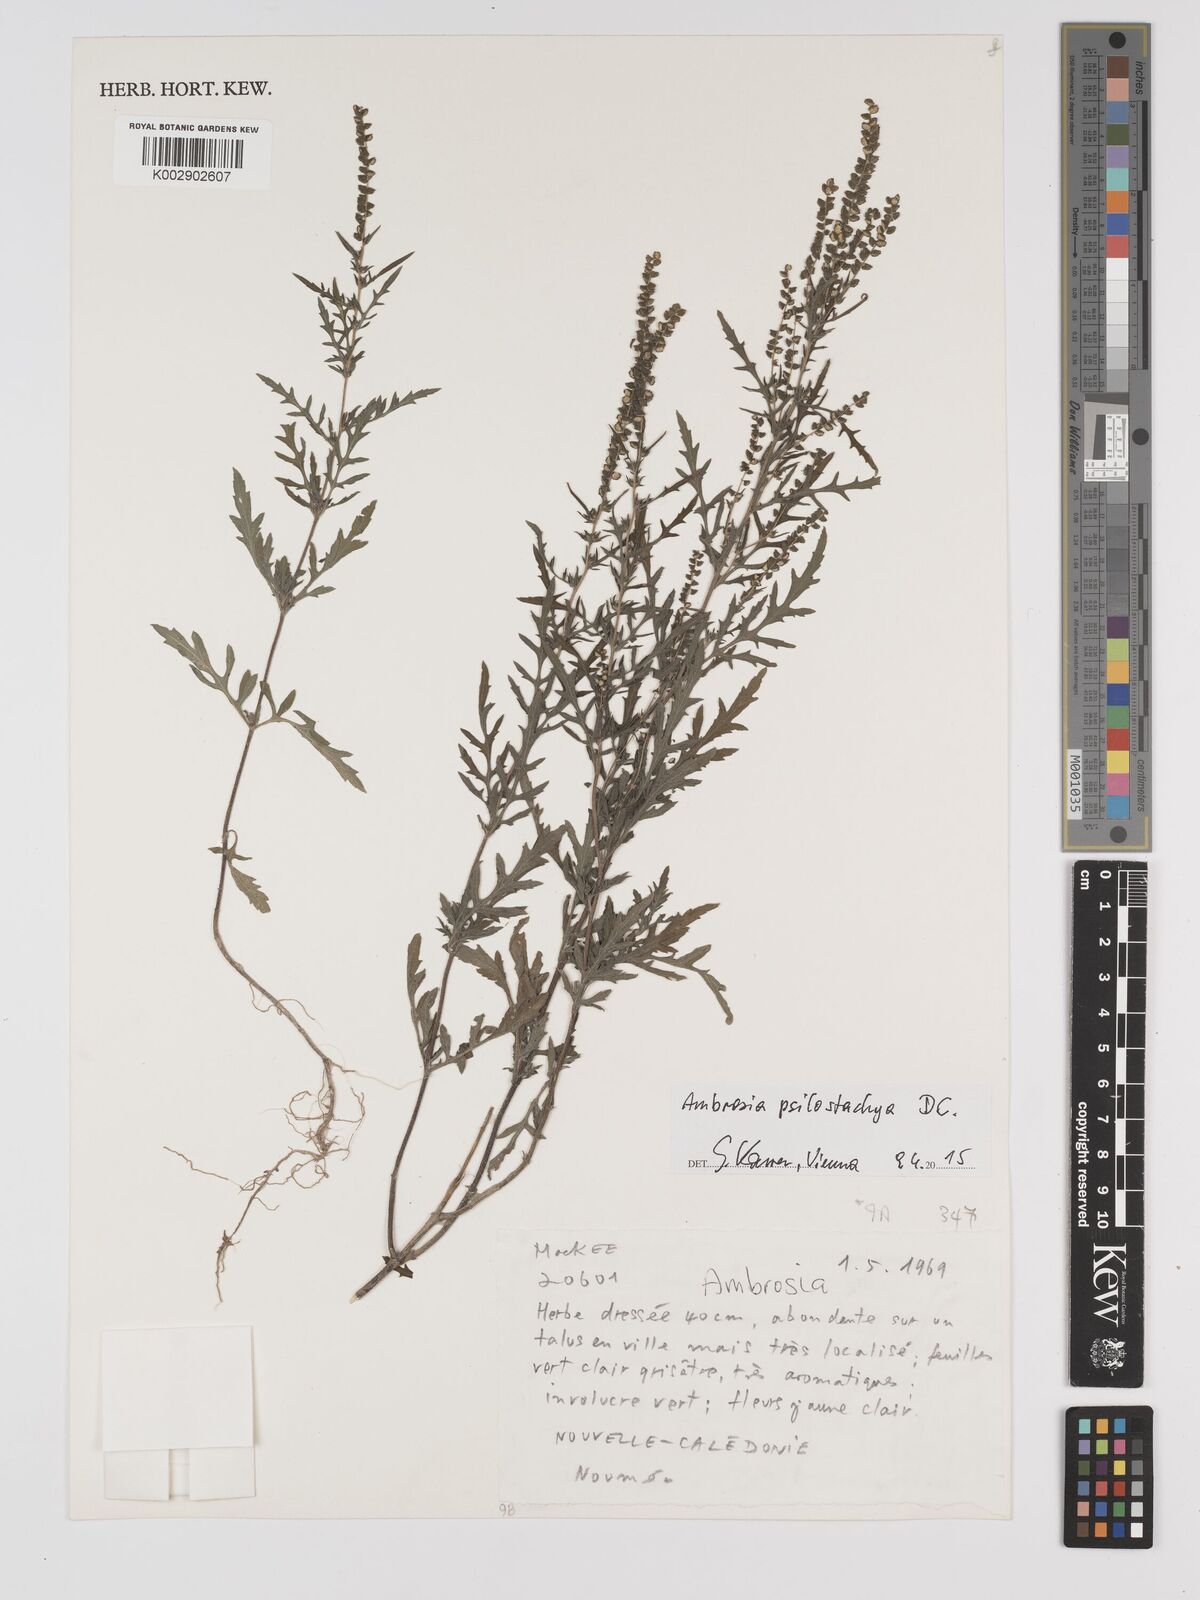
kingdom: Plantae
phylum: Tracheophyta
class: Magnoliopsida
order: Asterales
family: Asteraceae
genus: Ambrosia
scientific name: Ambrosia psilostachya
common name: Perennial ragweed
